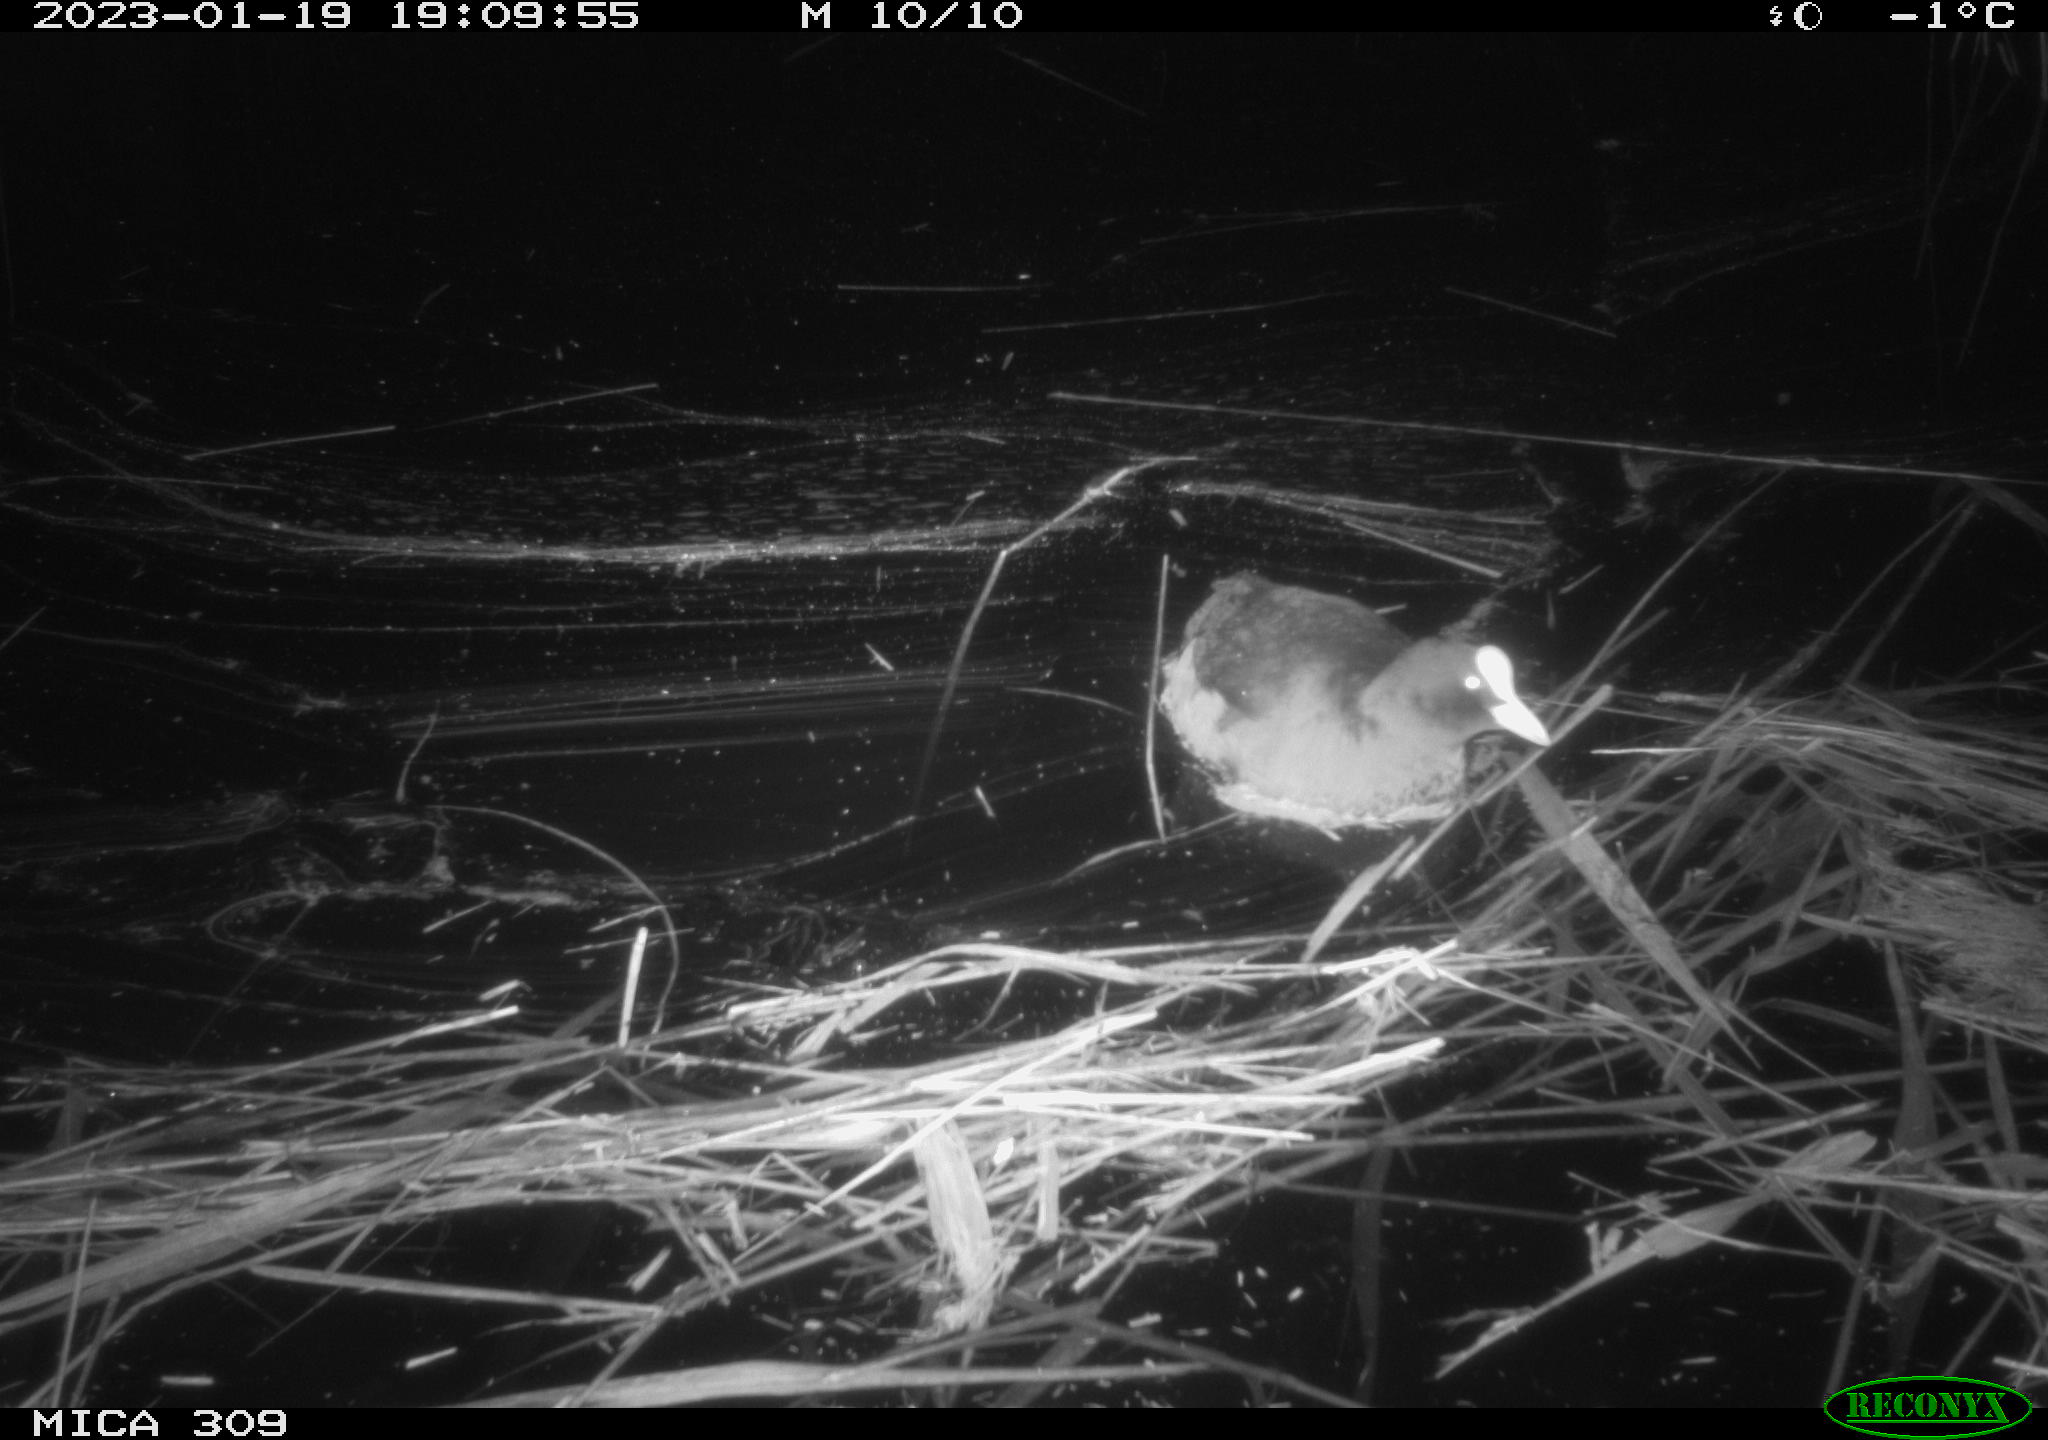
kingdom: Animalia
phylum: Chordata
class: Aves
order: Gruiformes
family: Rallidae
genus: Gallinula
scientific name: Gallinula chloropus
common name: Common moorhen
